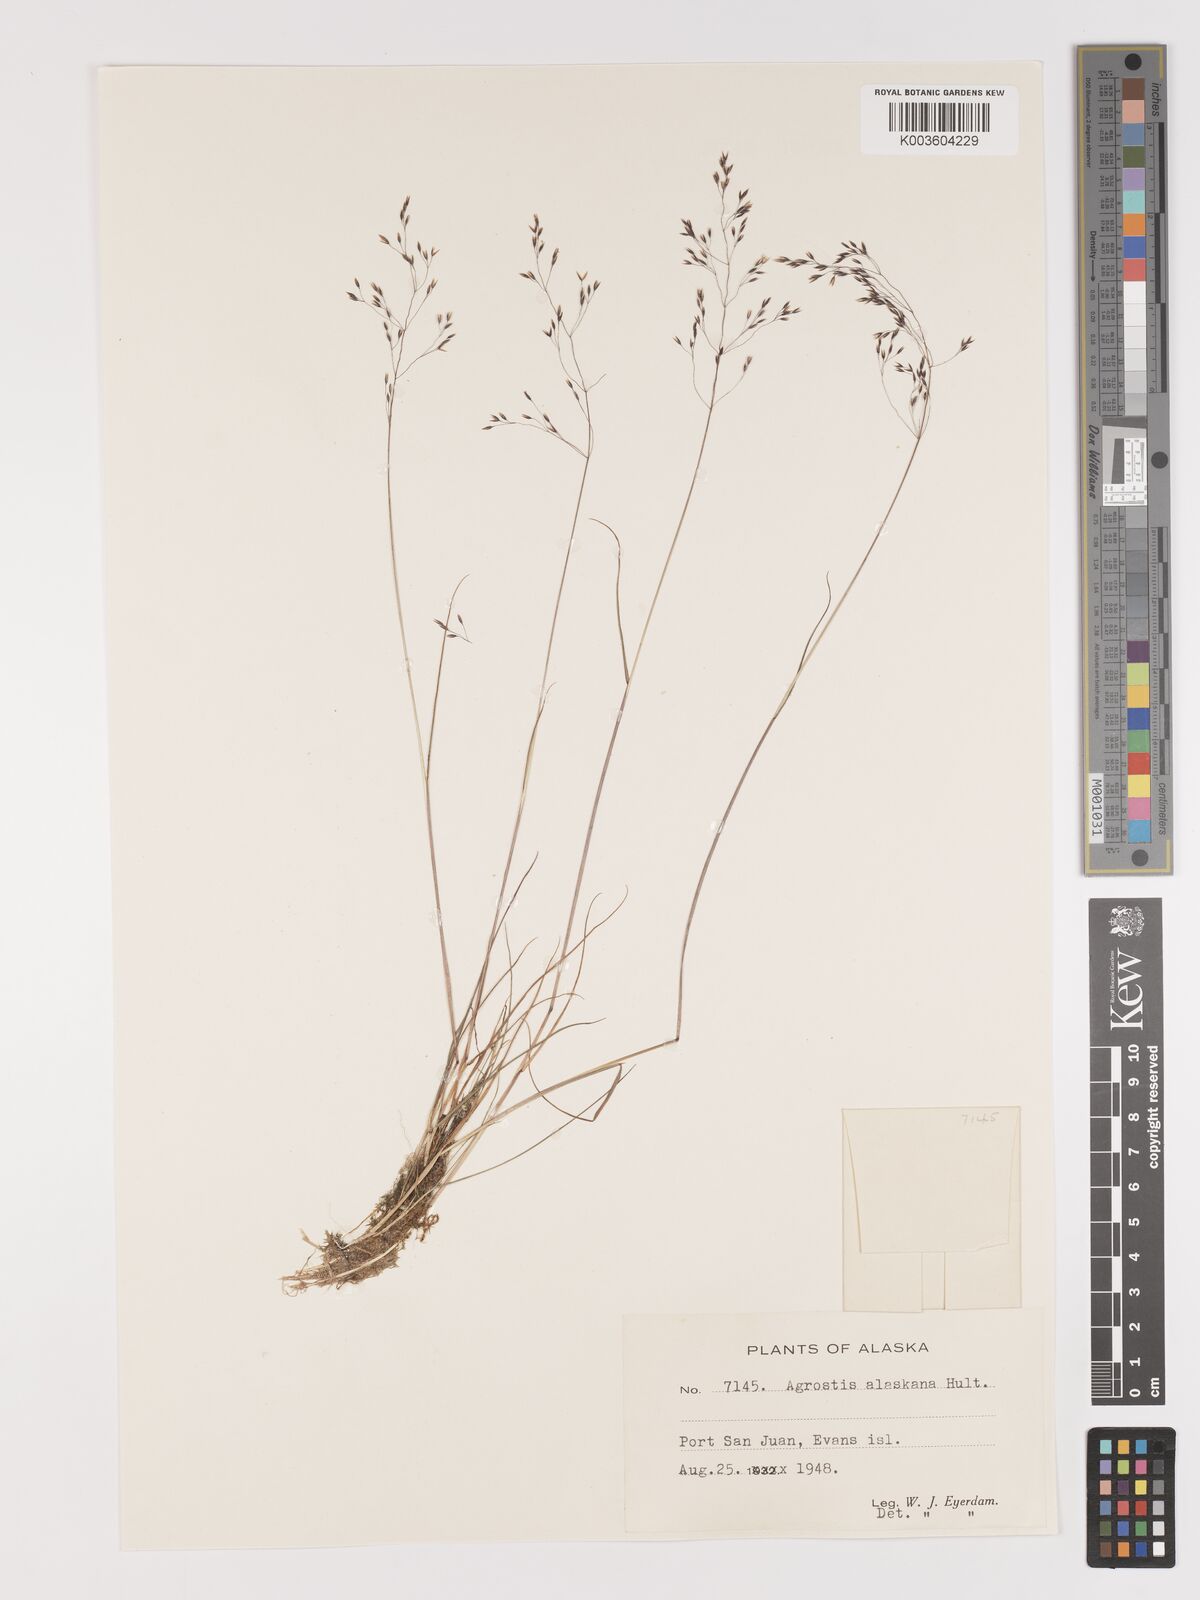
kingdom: Plantae
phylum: Tracheophyta
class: Liliopsida
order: Poales
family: Poaceae
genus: Agrostis
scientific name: Agrostis exarata
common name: Spike bent
